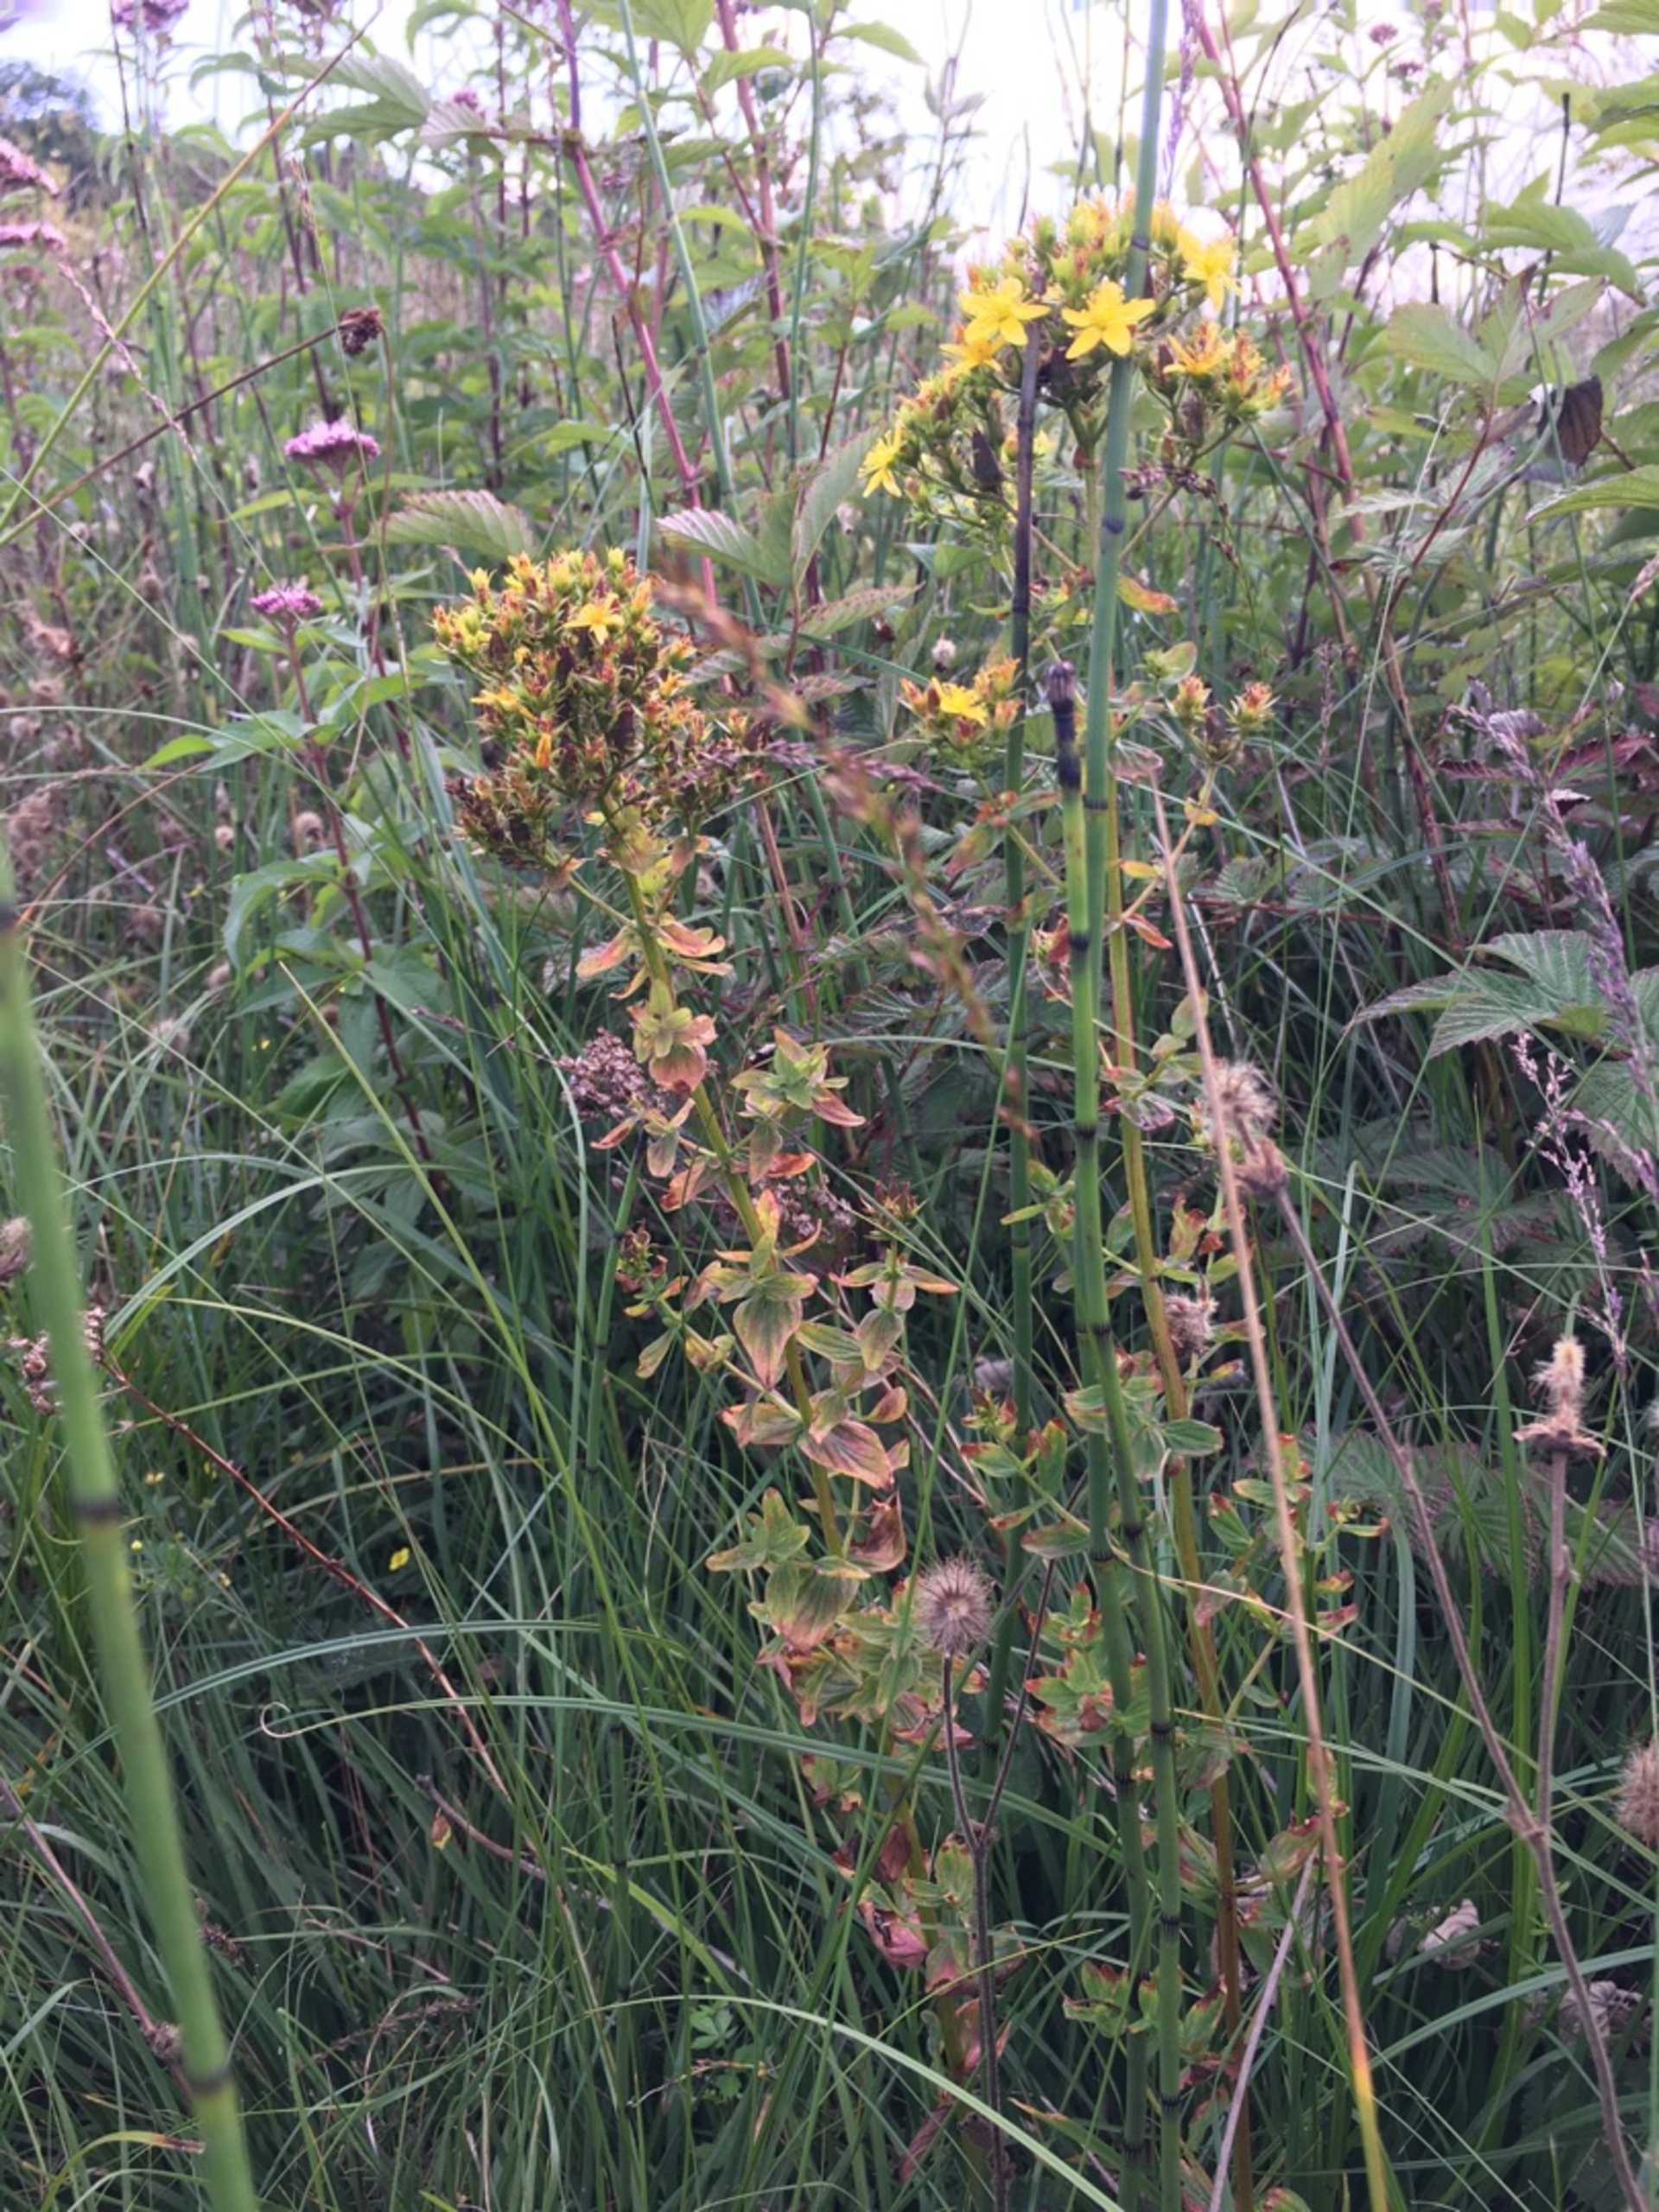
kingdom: Plantae
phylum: Tracheophyta
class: Magnoliopsida
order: Malpighiales
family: Hypericaceae
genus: Hypericum
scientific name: Hypericum tetrapterum
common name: Vinget perikon
